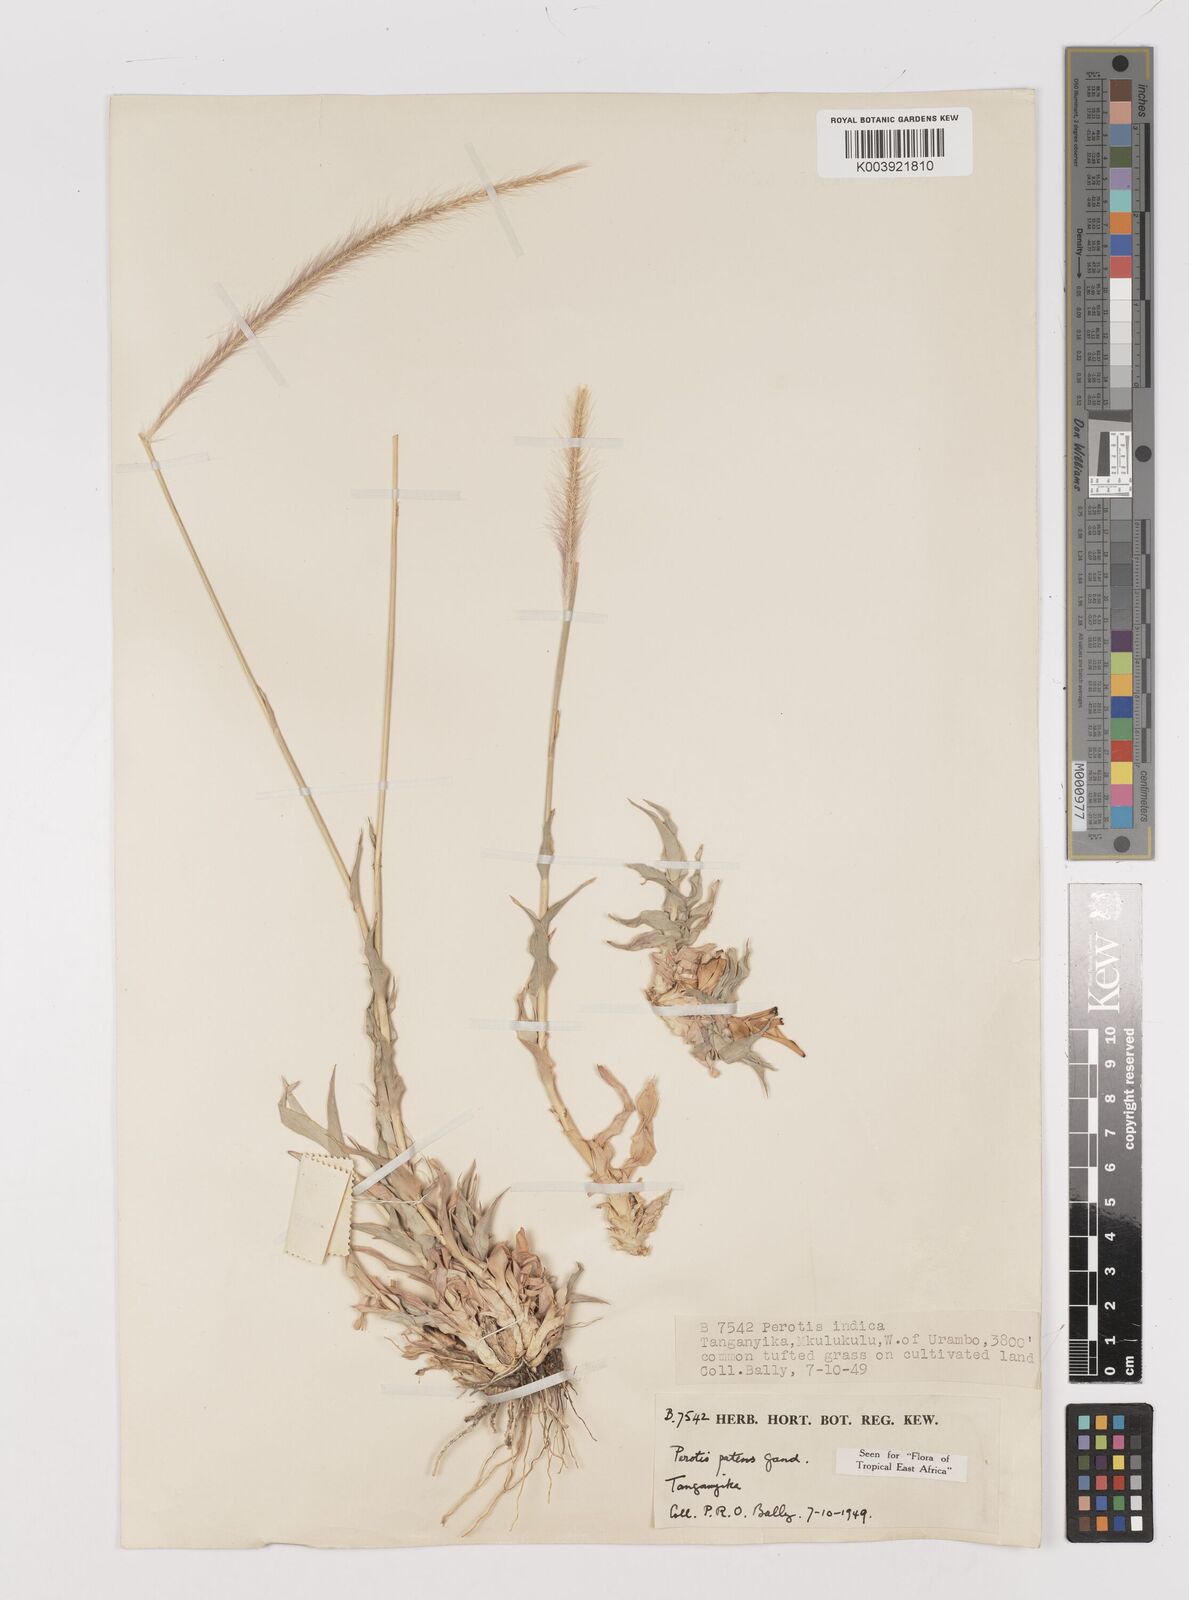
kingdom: Plantae
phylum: Tracheophyta
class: Liliopsida
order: Poales
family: Poaceae
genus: Perotis
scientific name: Perotis patens
